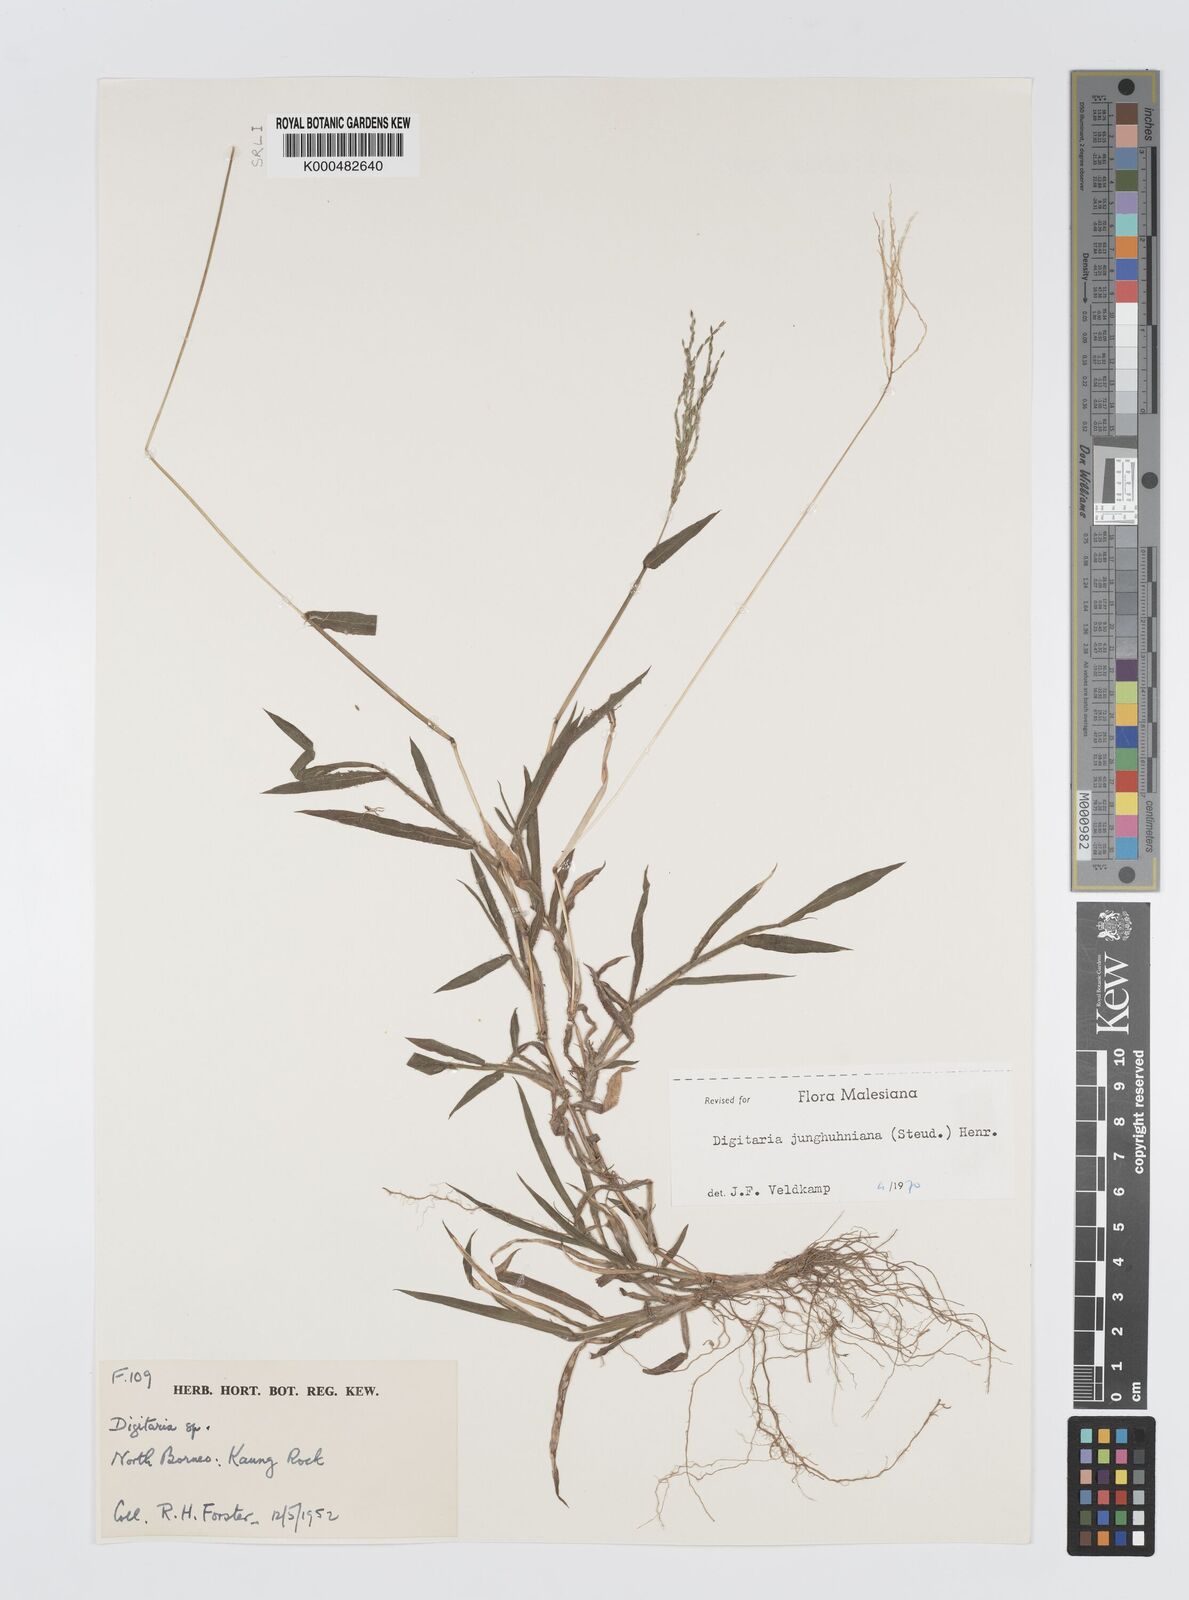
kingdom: Plantae
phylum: Tracheophyta
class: Liliopsida
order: Poales
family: Poaceae
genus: Digitaria
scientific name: Digitaria junghuhniana
